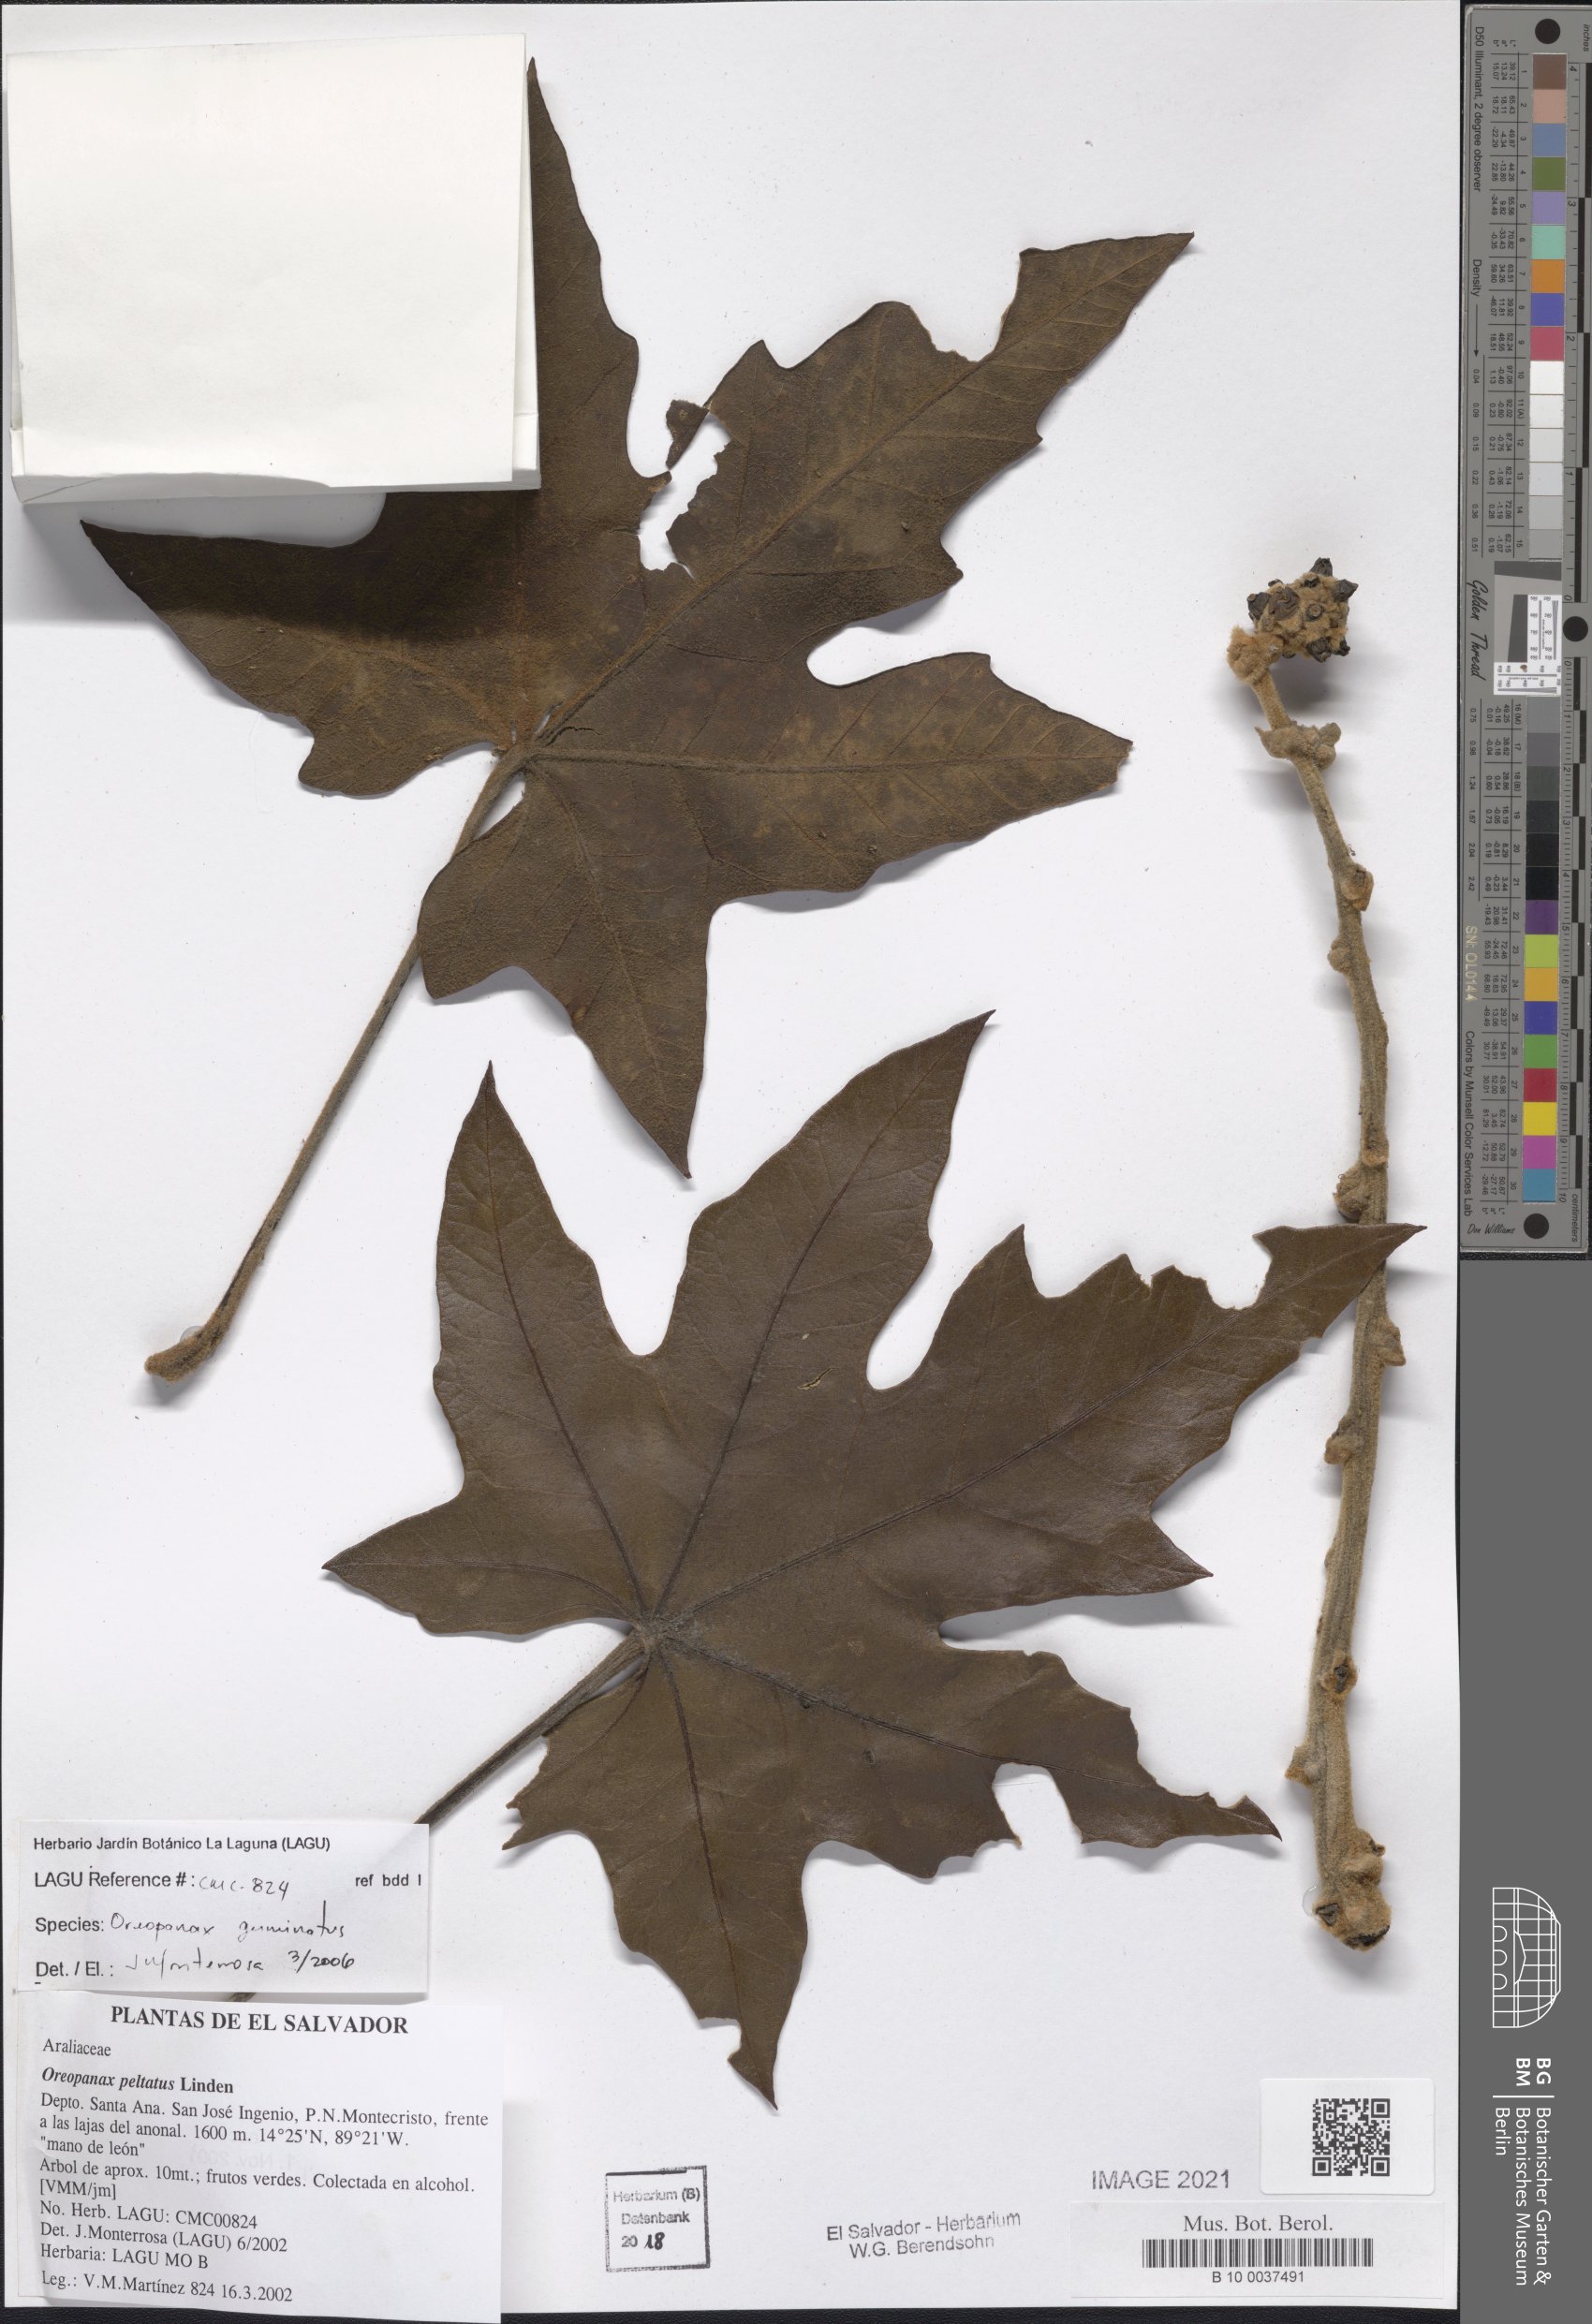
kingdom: Plantae
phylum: Tracheophyta
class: Magnoliopsida
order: Apiales
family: Araliaceae
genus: Oreopanax
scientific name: Oreopanax geminatus
